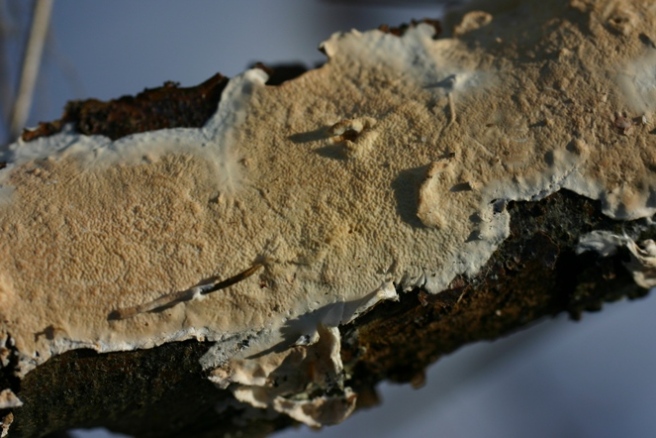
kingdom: Fungi
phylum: Basidiomycota
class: Agaricomycetes
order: Polyporales
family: Irpicaceae
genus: Byssomerulius
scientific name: Byssomerulius corium
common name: læder-åresvamp
